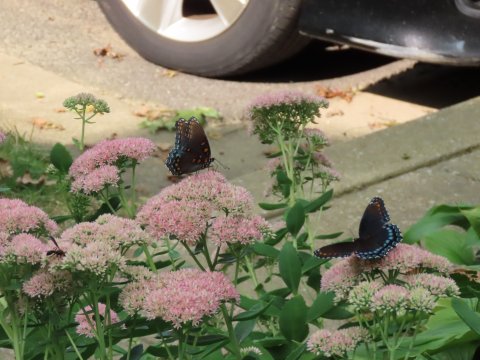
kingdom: Animalia
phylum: Arthropoda
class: Insecta
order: Lepidoptera
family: Nymphalidae
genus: Limenitis
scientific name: Limenitis arthemis
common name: Red-spotted Admiral
